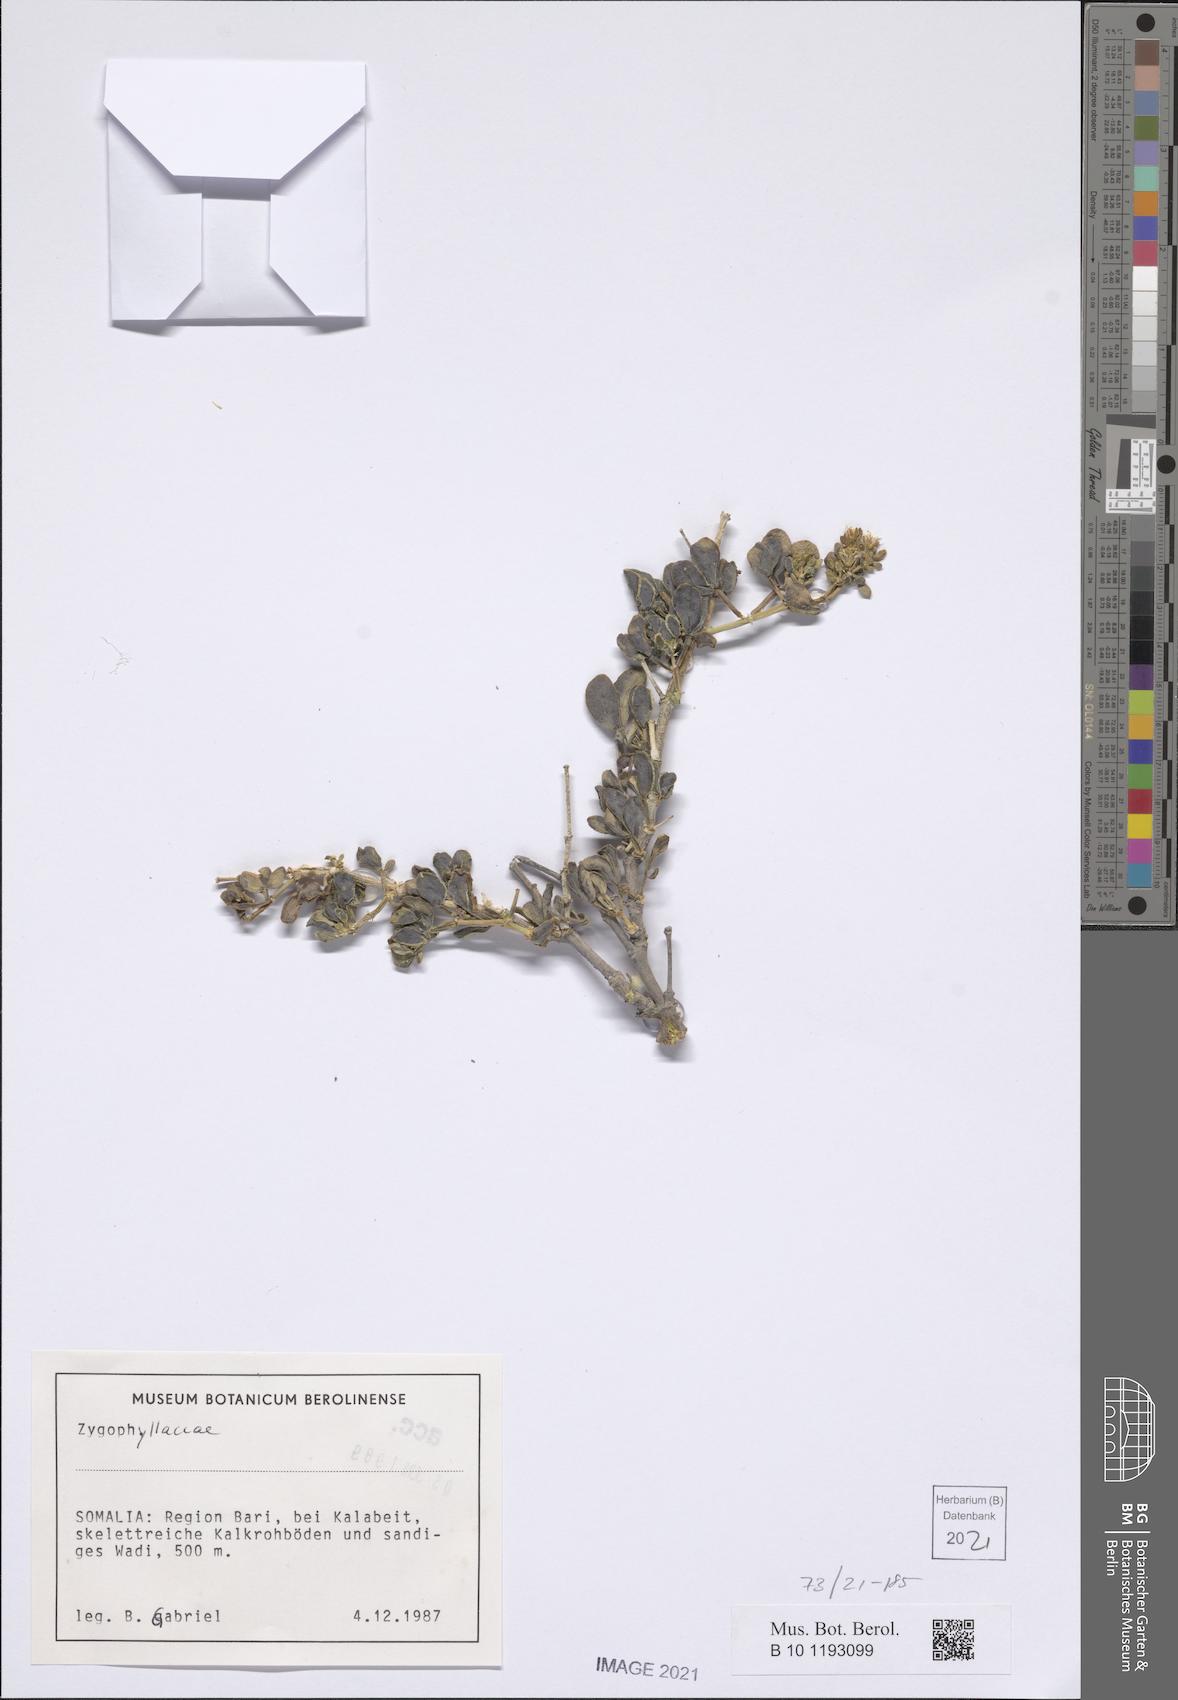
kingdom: Plantae
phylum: Tracheophyta
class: Magnoliopsida
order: Zygophyllales
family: Zygophyllaceae
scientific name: Zygophyllaceae
